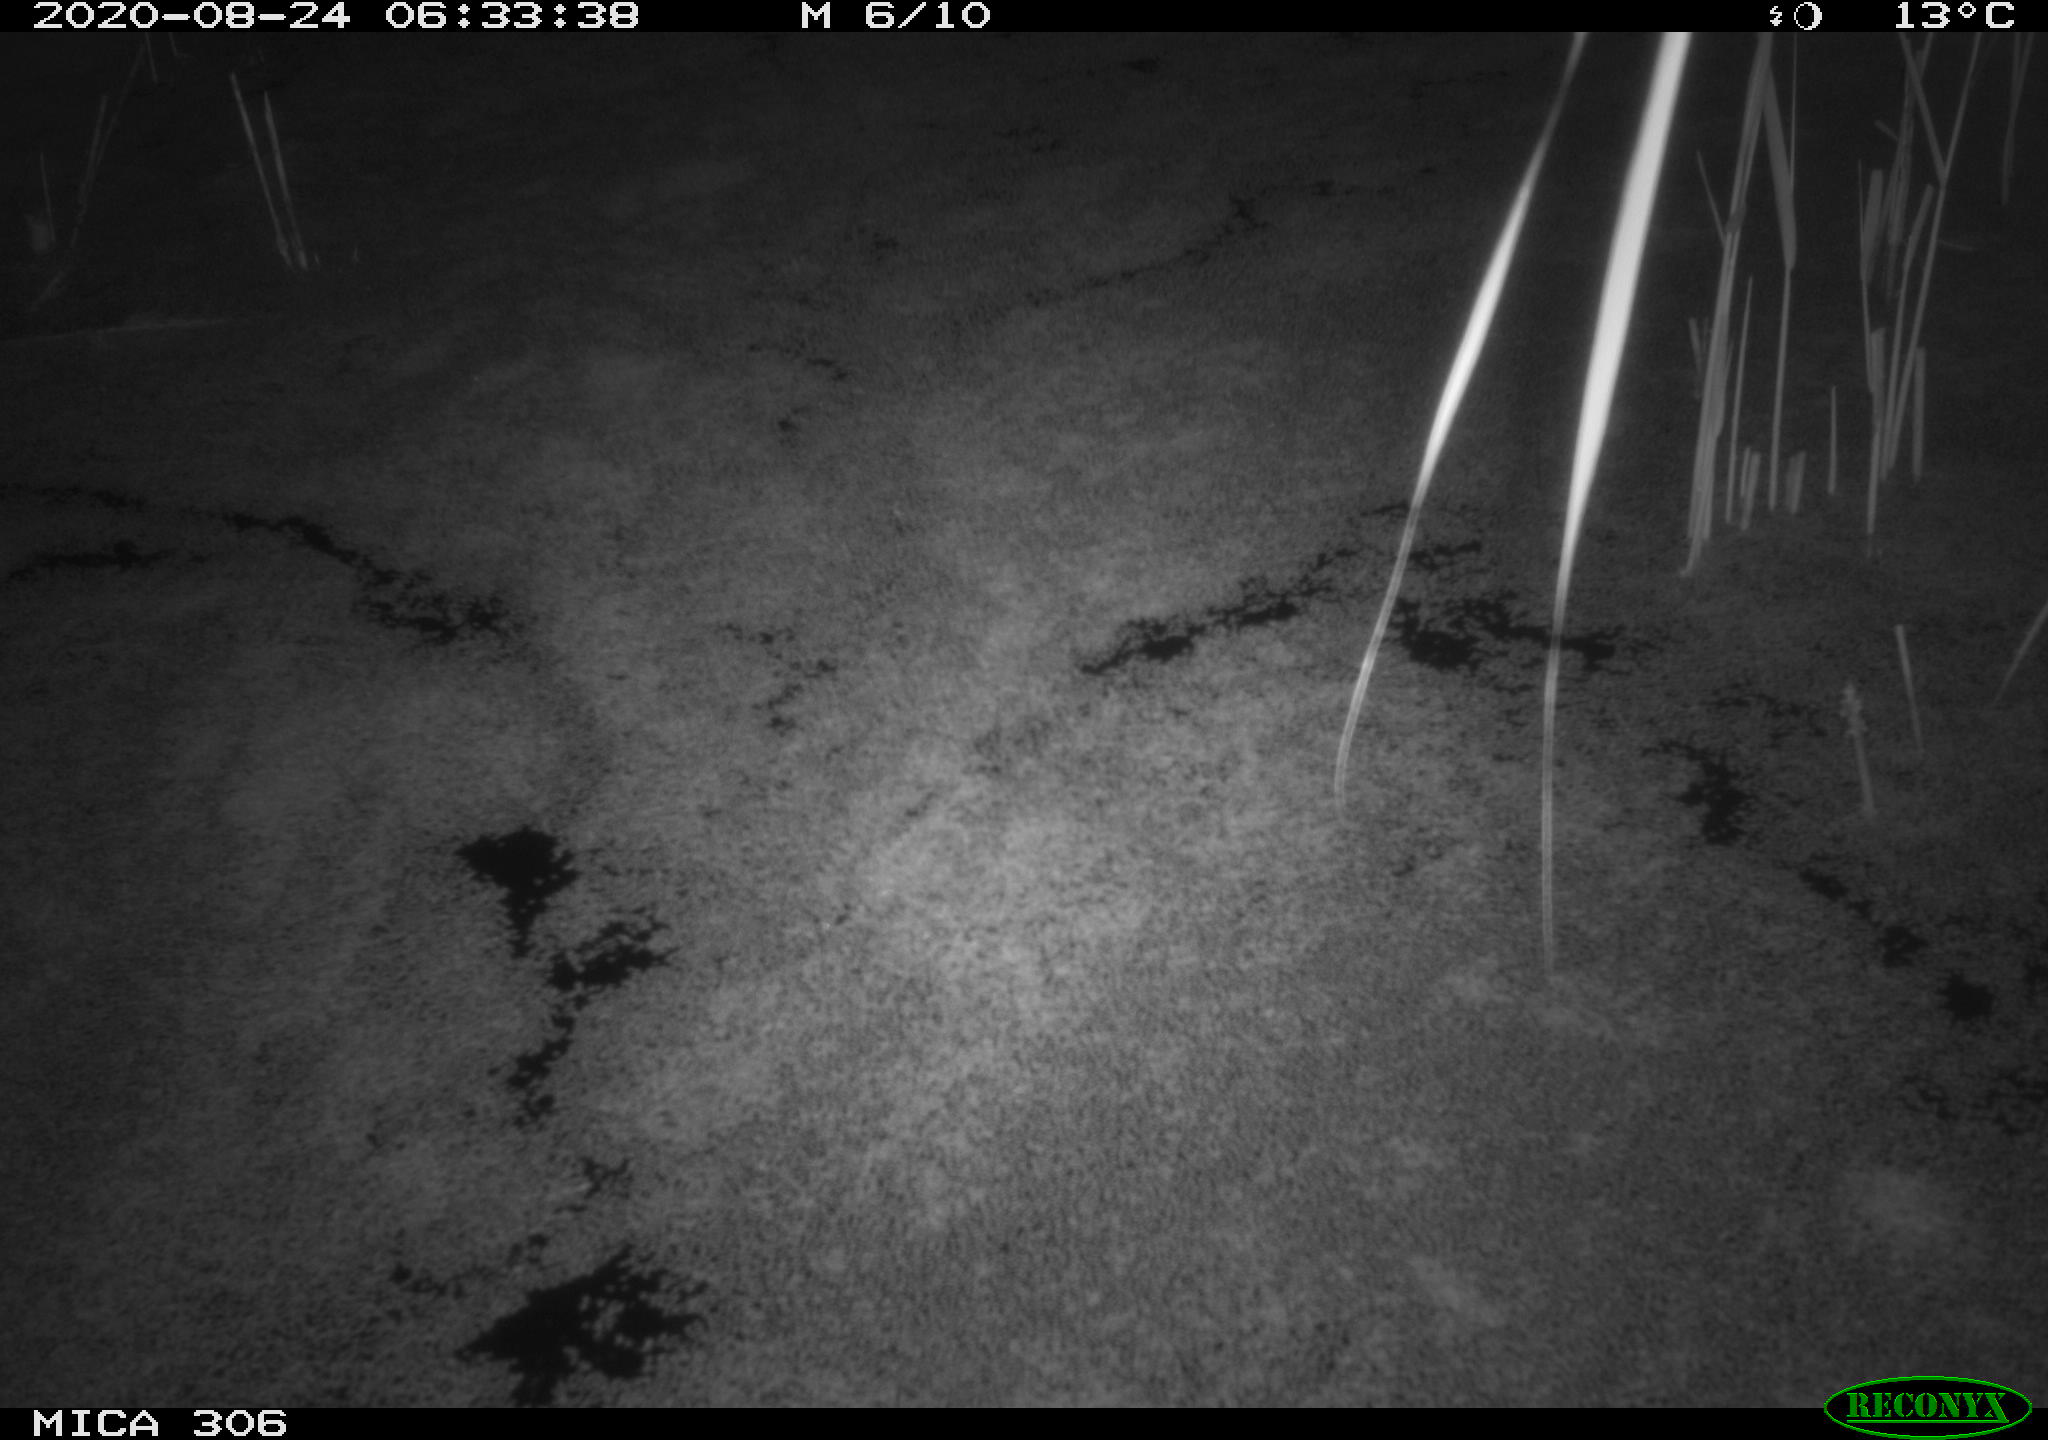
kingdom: Animalia
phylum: Chordata
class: Aves
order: Gruiformes
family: Rallidae
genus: Fulica
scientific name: Fulica atra
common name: Eurasian coot
